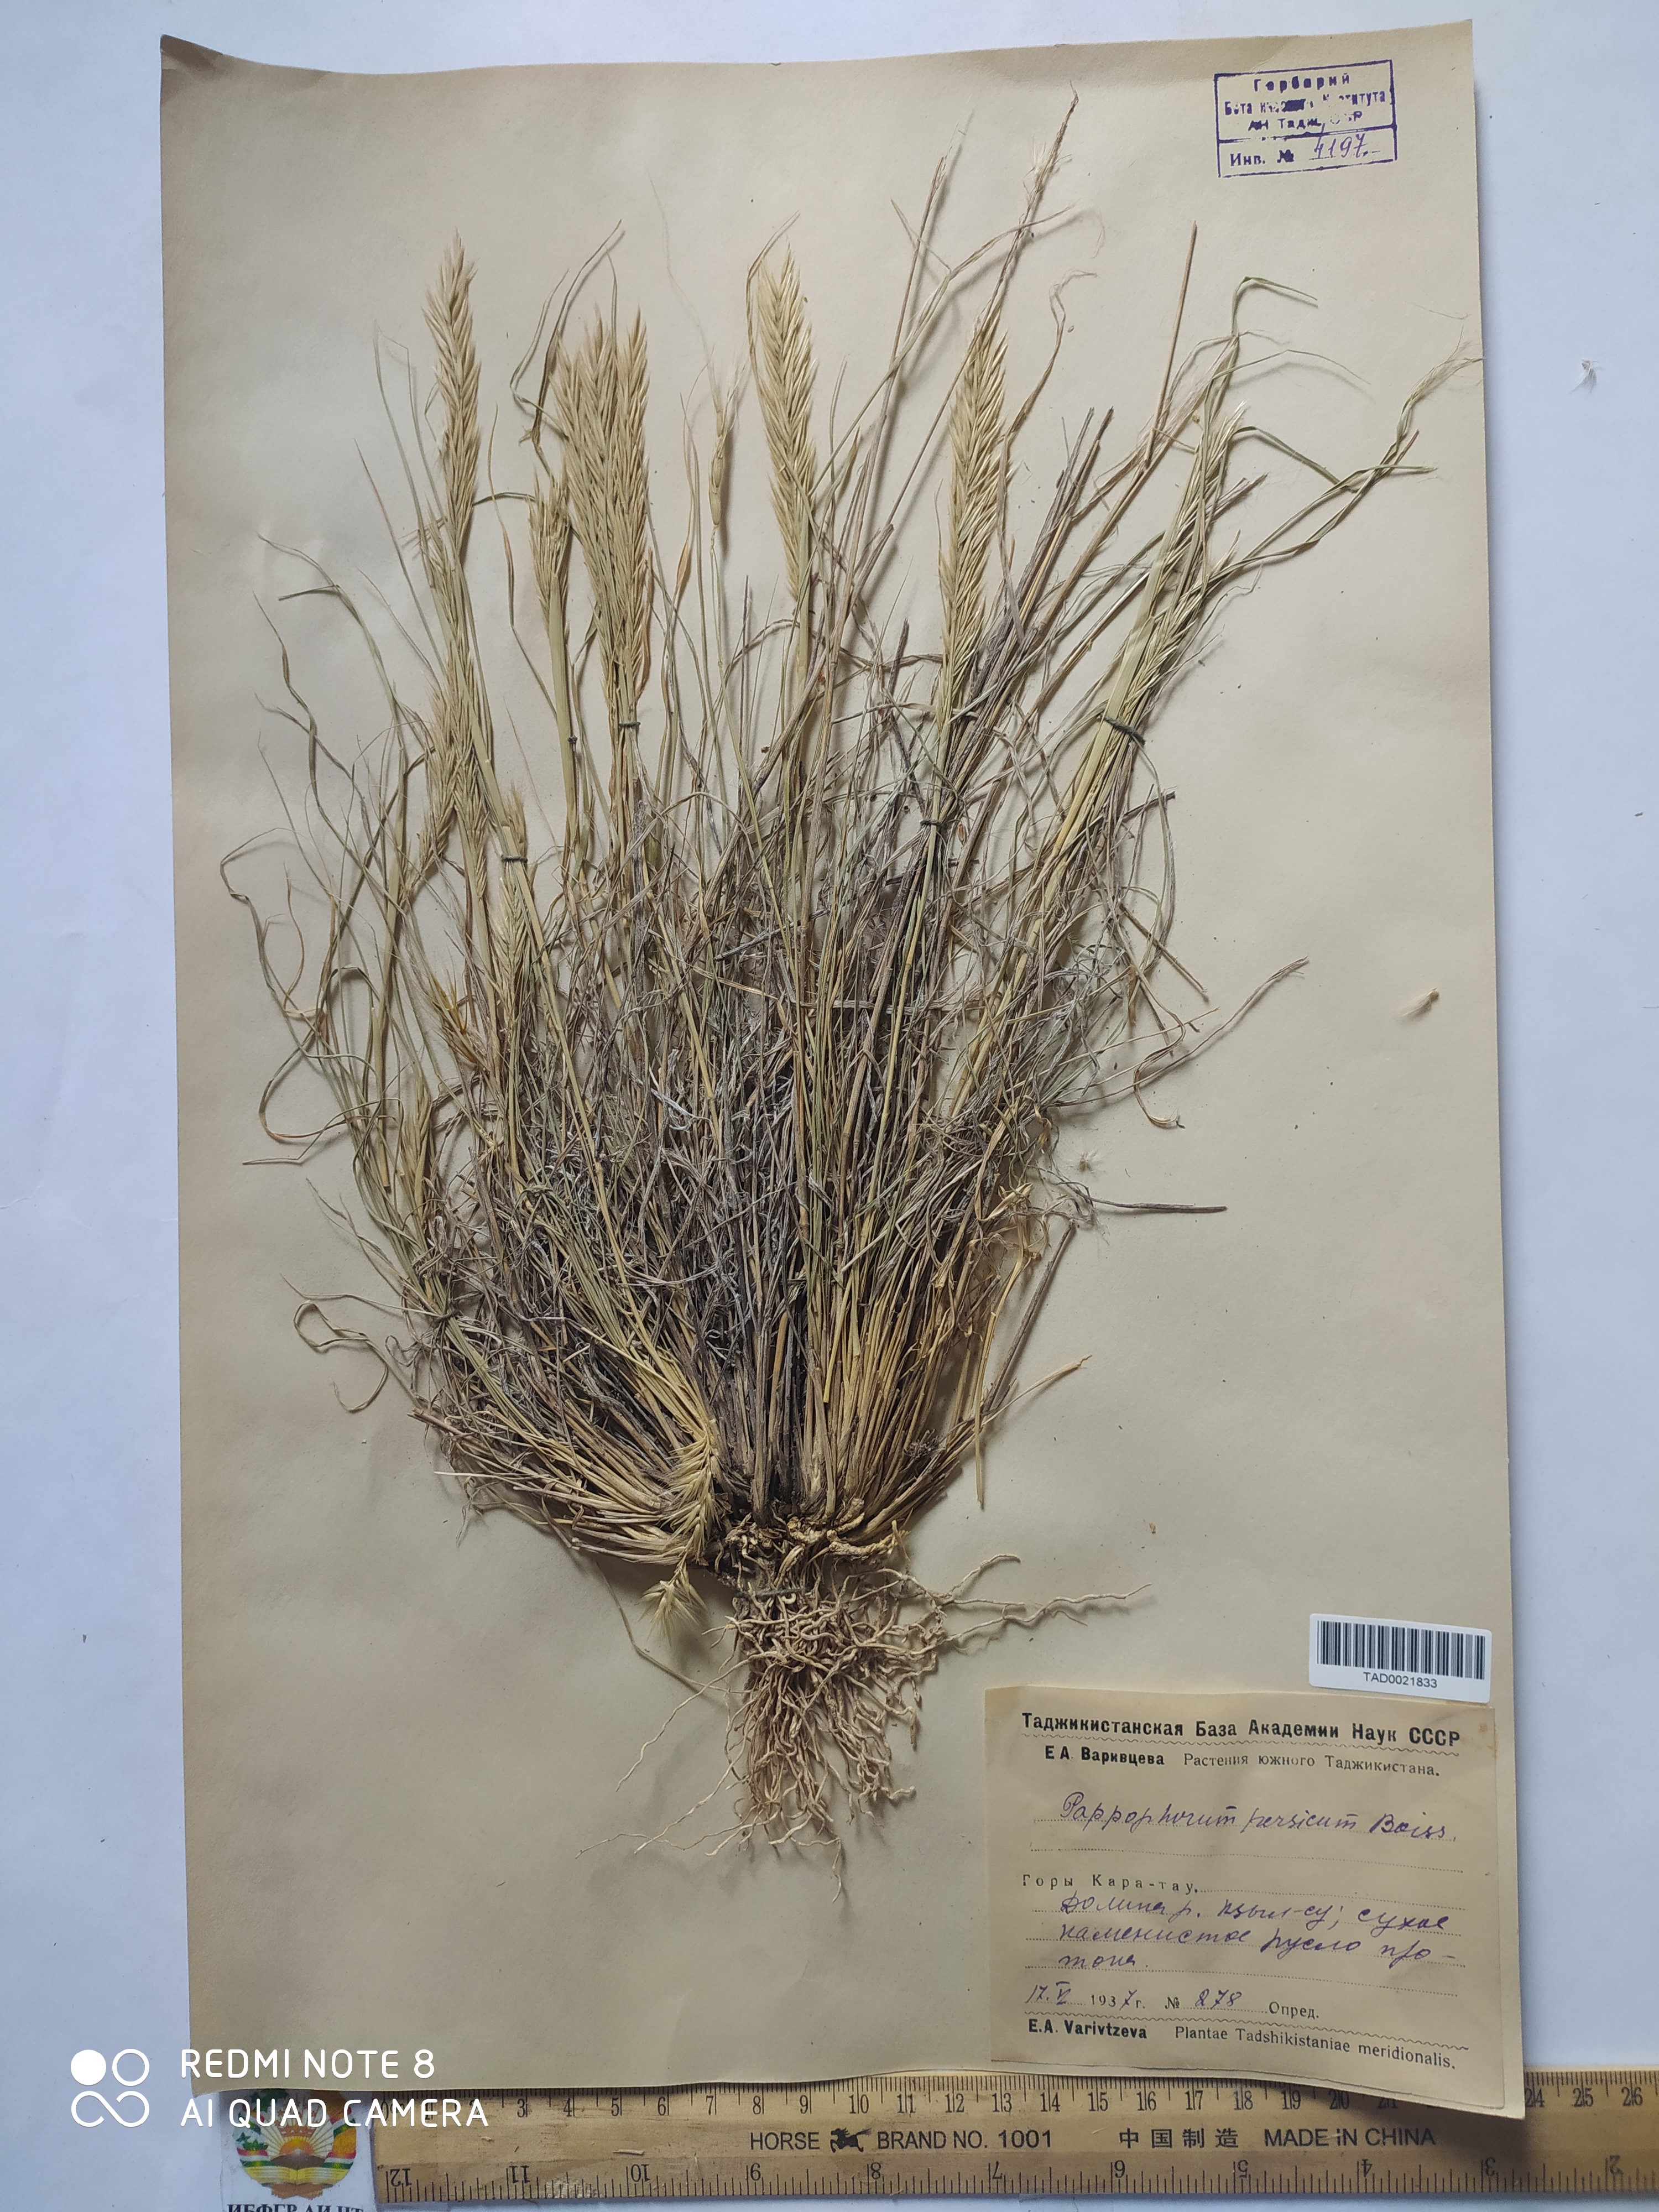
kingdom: Plantae
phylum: Tracheophyta
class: Liliopsida
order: Poales
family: Poaceae
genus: Enneapogon
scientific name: Enneapogon persicus
